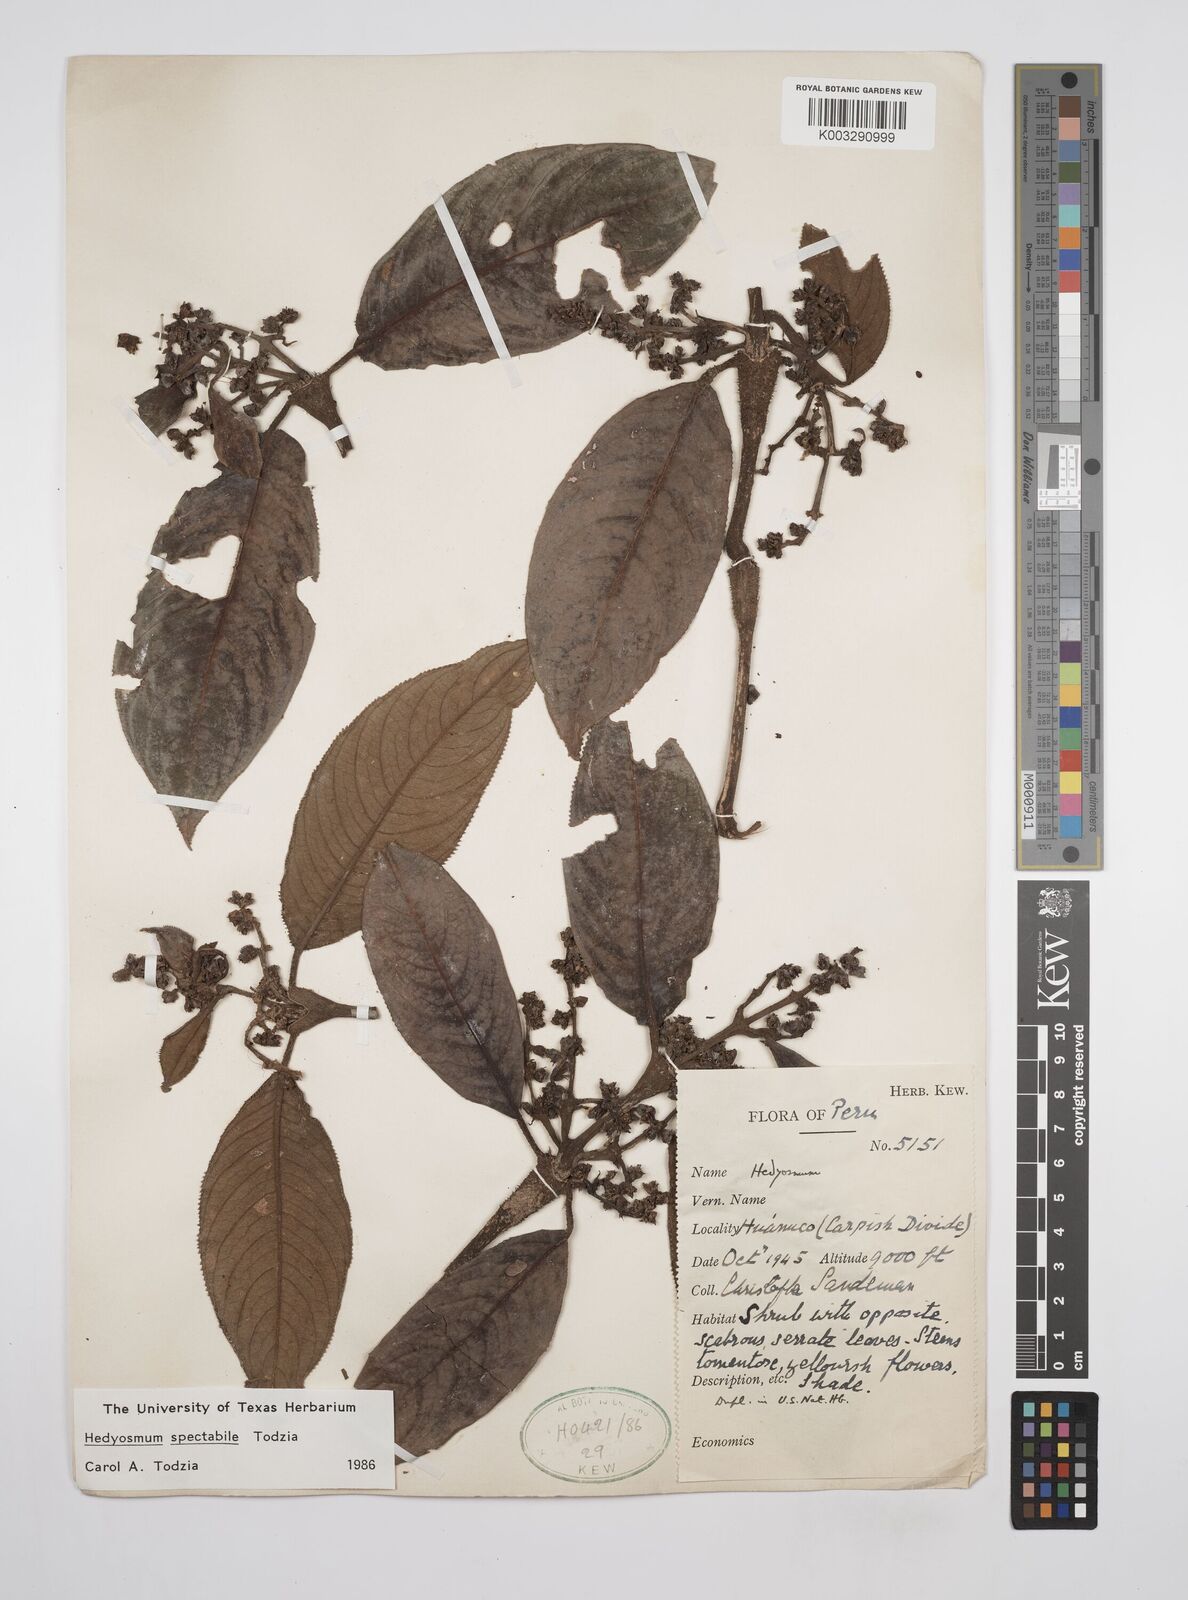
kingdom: Plantae
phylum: Tracheophyta
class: Magnoliopsida
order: Chloranthales
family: Chloranthaceae
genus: Hedyosmum
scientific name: Hedyosmum spectabile
